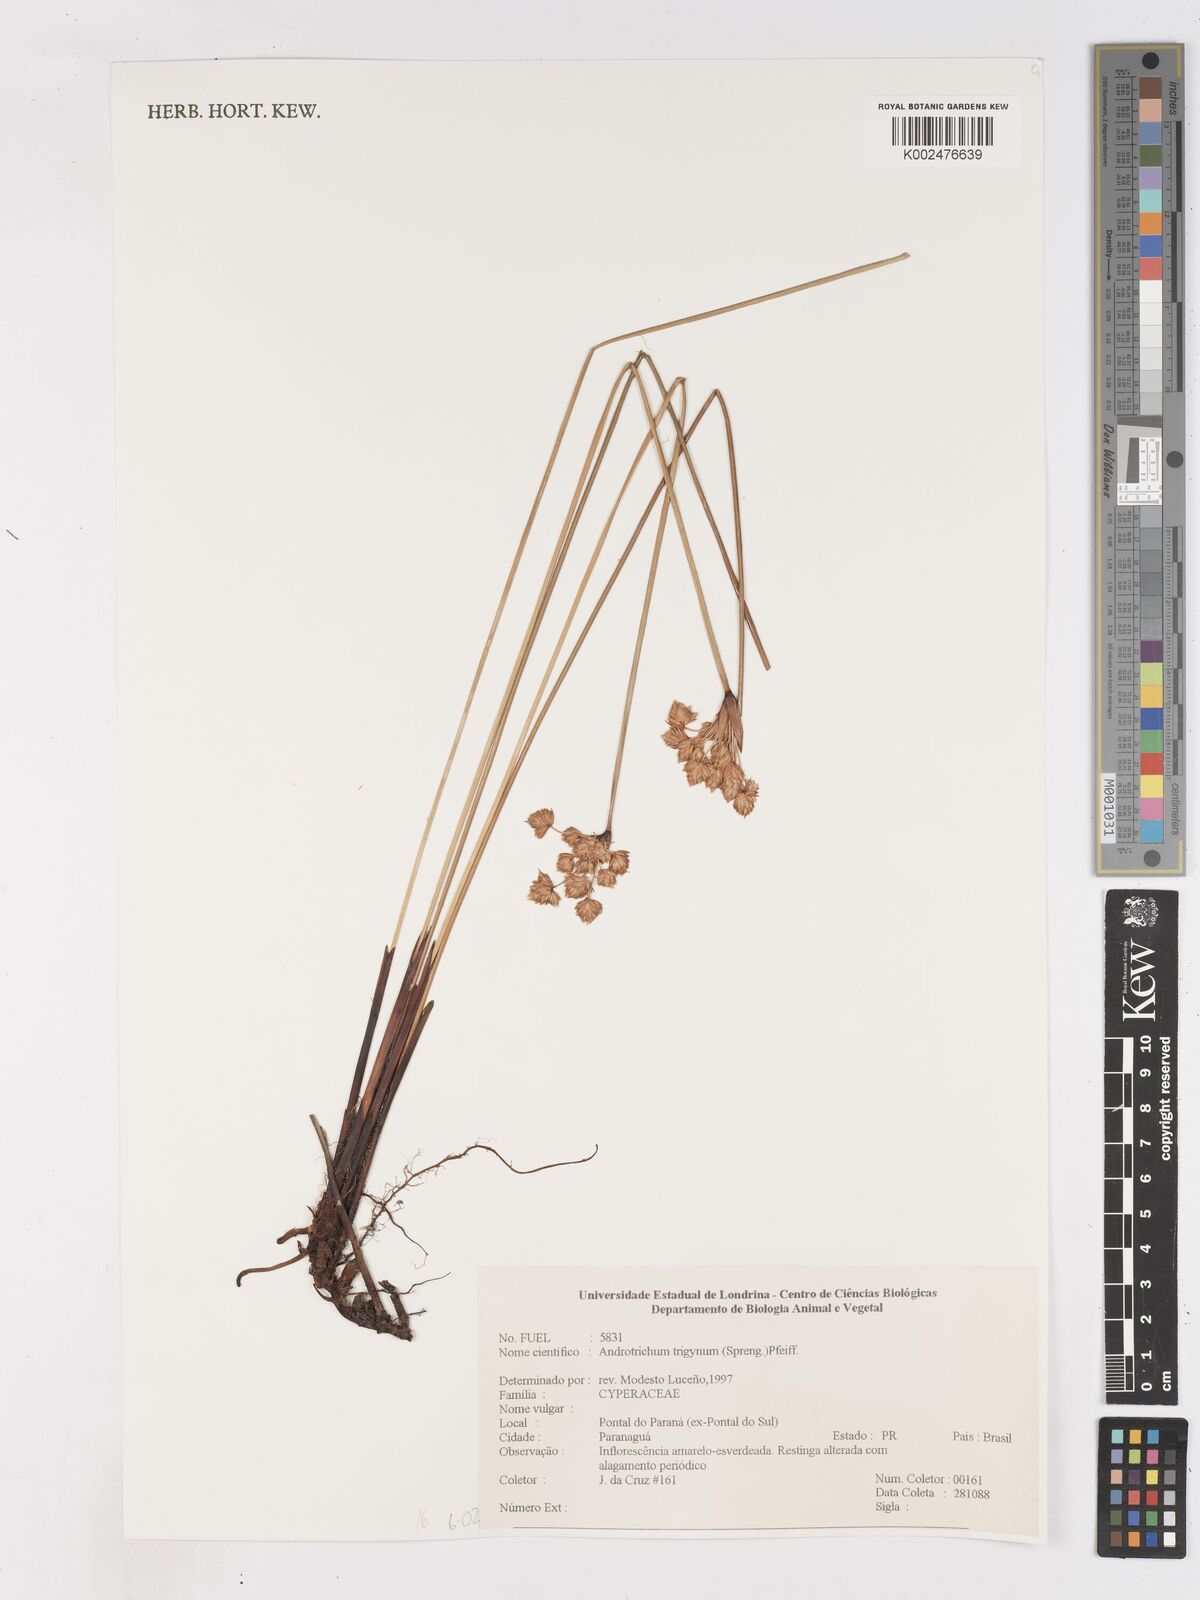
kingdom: Plantae
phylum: Tracheophyta
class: Liliopsida
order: Poales
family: Cyperaceae
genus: Cyperus
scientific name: Cyperus trigynus
